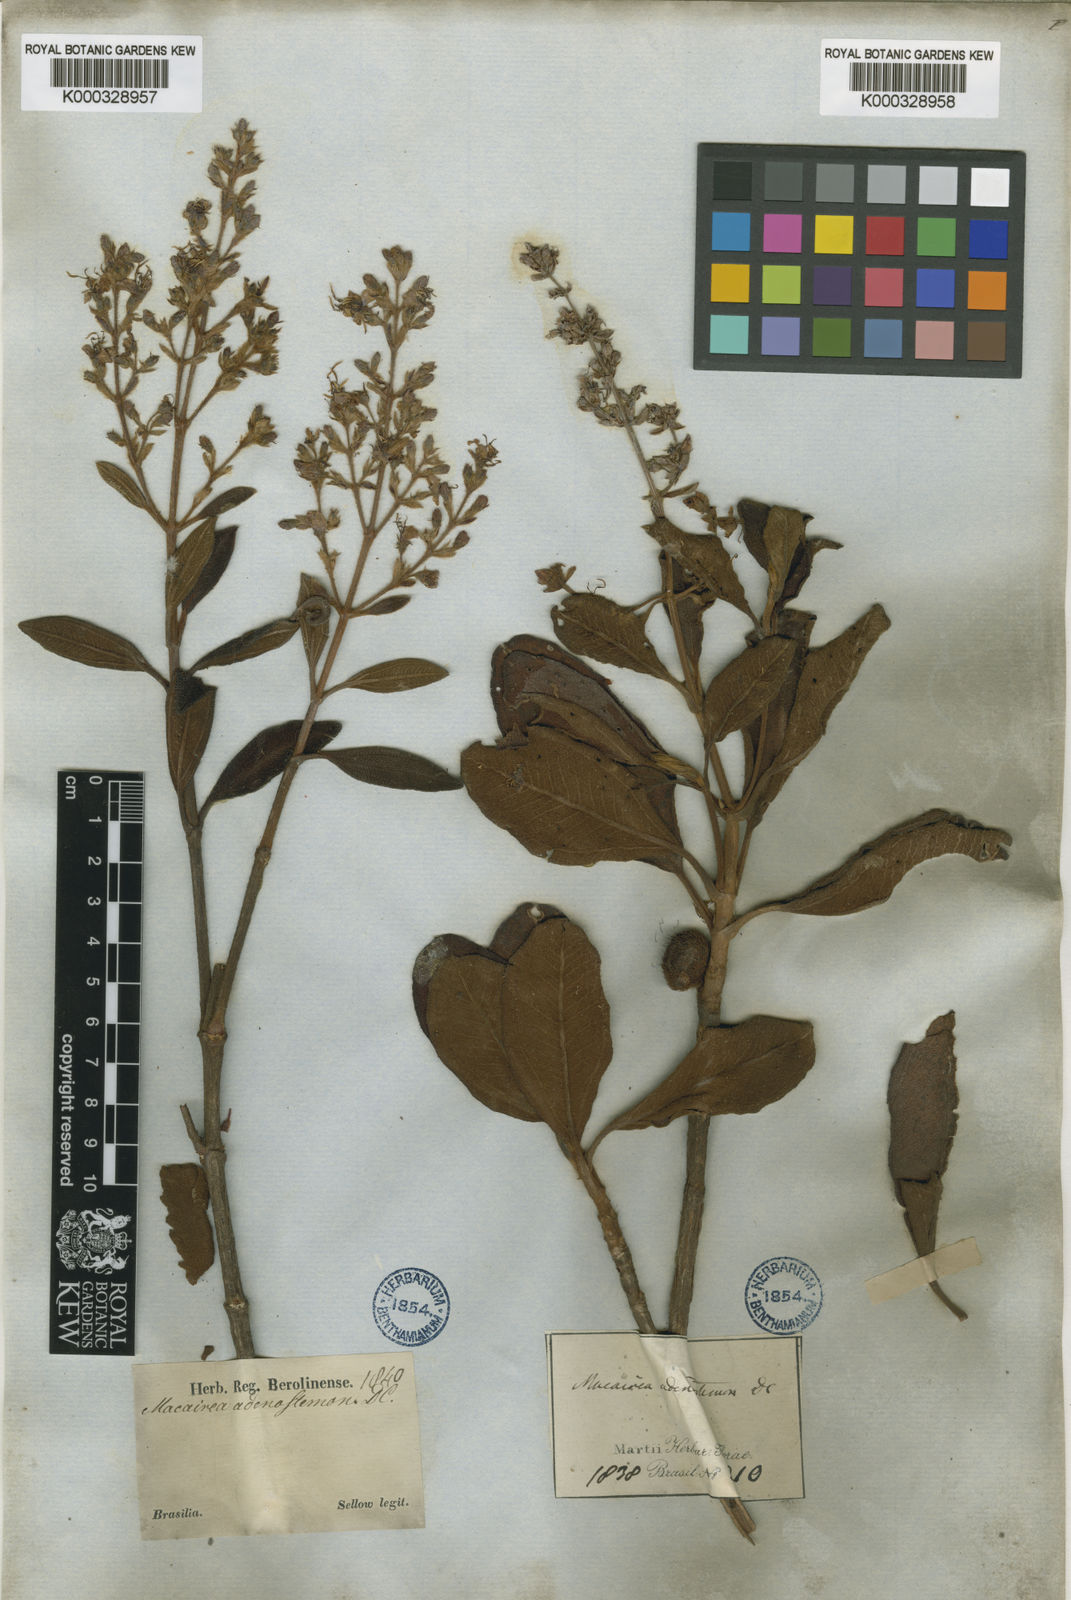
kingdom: Plantae
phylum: Tracheophyta
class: Magnoliopsida
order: Myrtales
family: Melastomataceae
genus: Macairea
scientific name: Macairea radula
